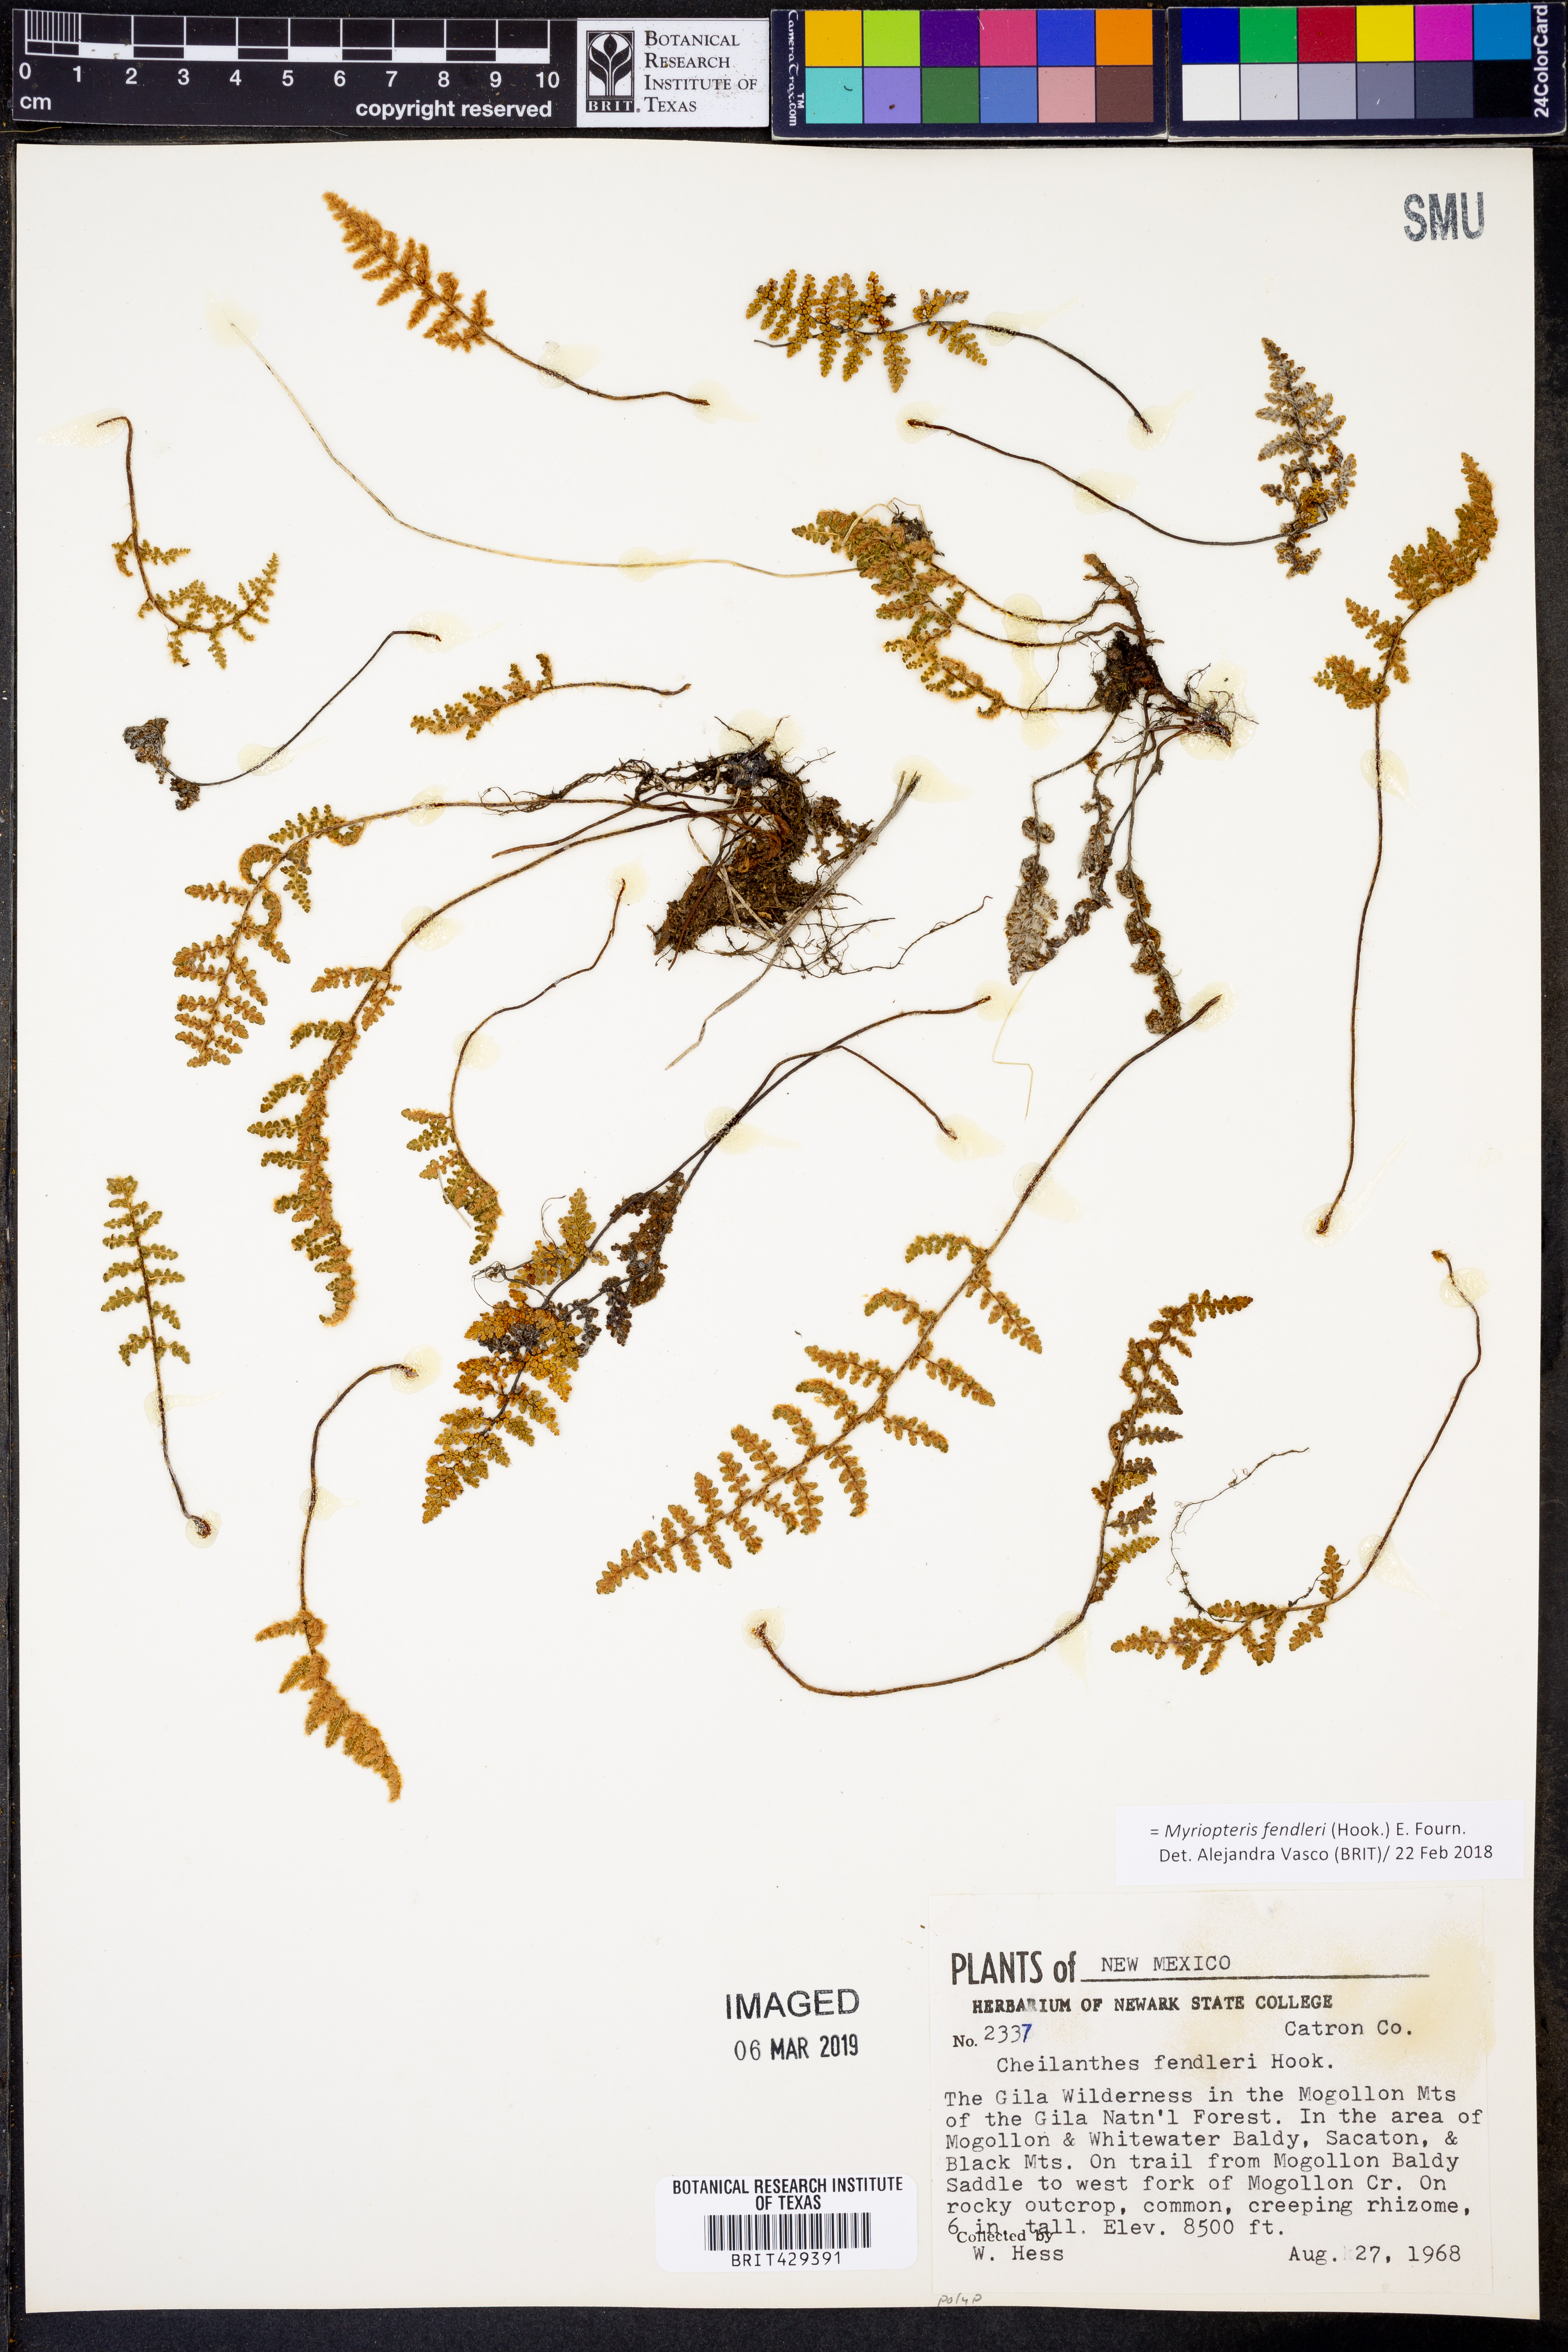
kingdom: Plantae
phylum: Tracheophyta
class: Polypodiopsida
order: Polypodiales
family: Pteridaceae
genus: Myriopteris
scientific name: Myriopteris fendleri
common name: Fendler's lip fern
